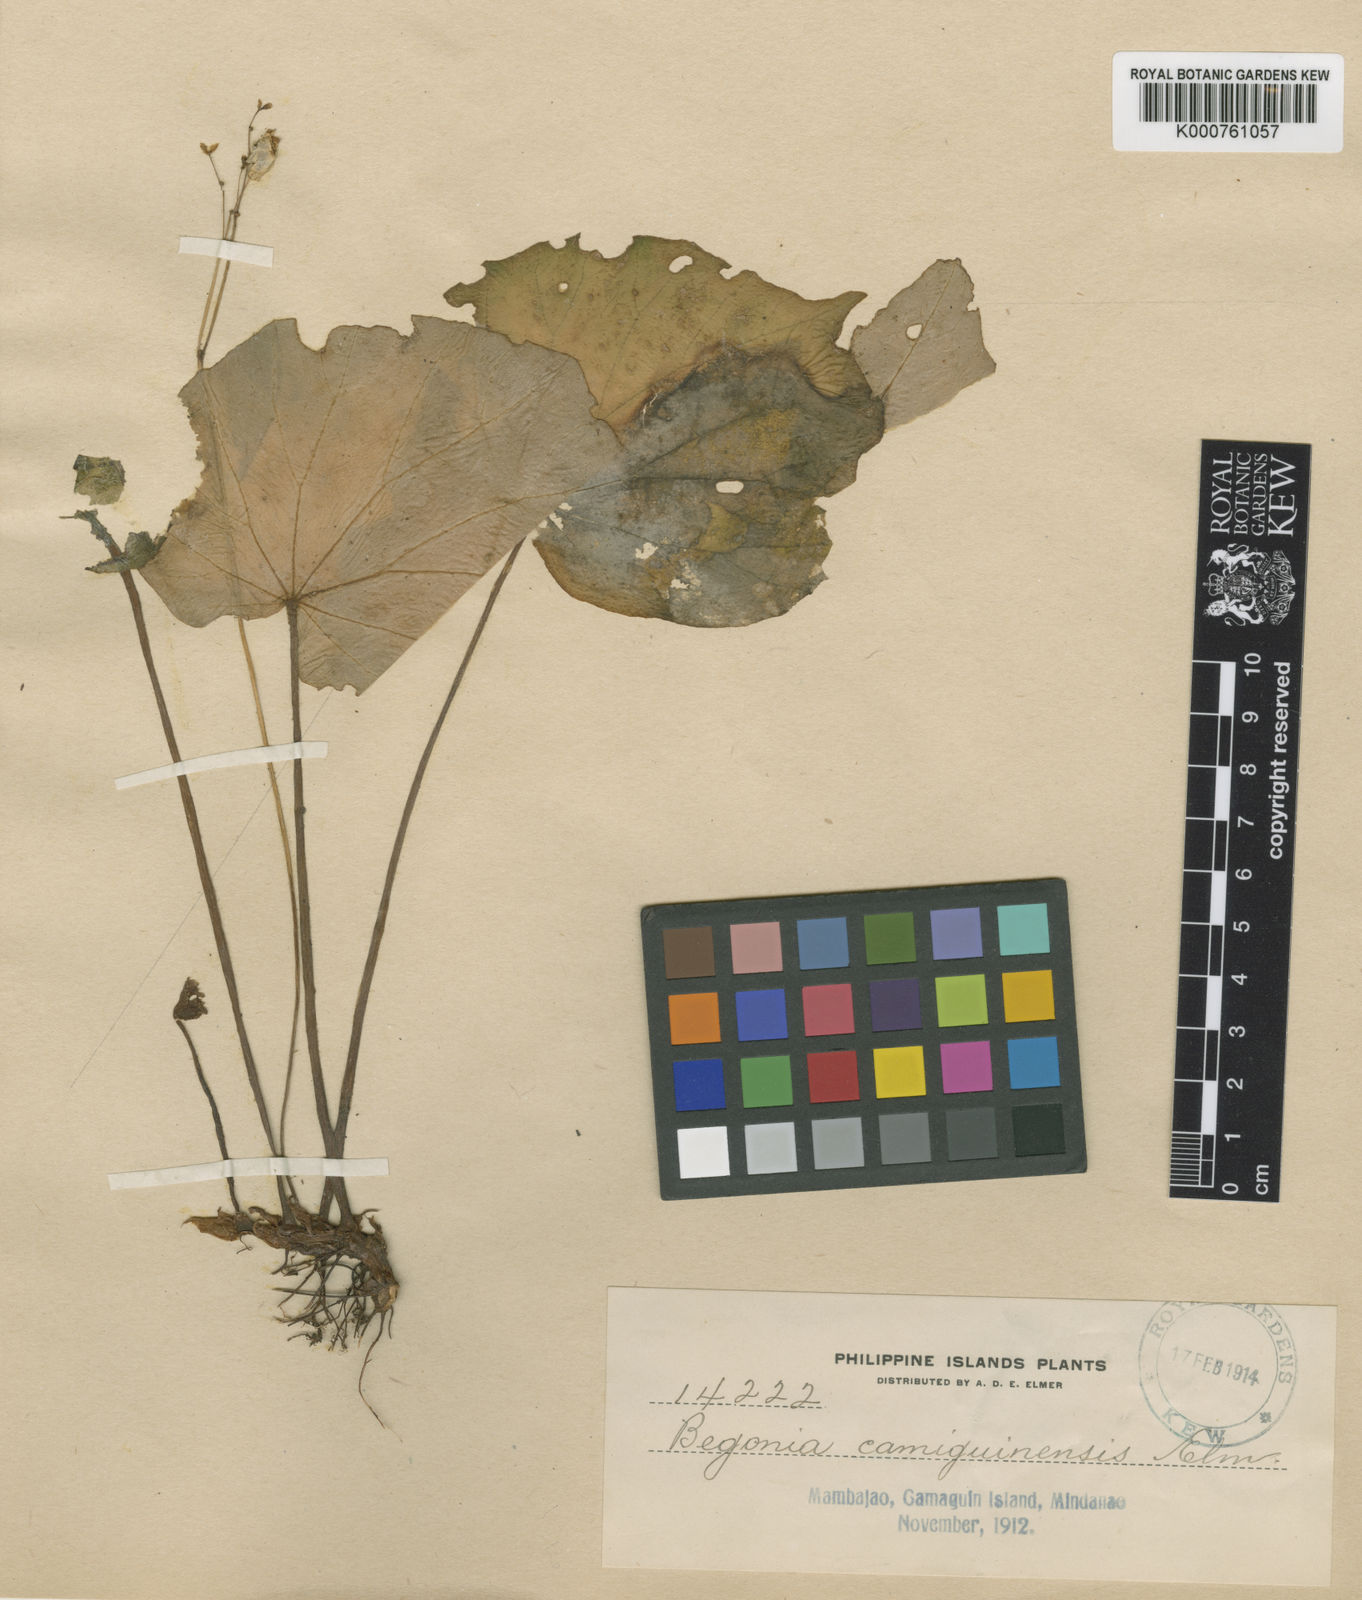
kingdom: Plantae
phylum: Tracheophyta
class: Magnoliopsida
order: Cucurbitales
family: Begoniaceae
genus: Begonia
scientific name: Begonia acuminatissima
